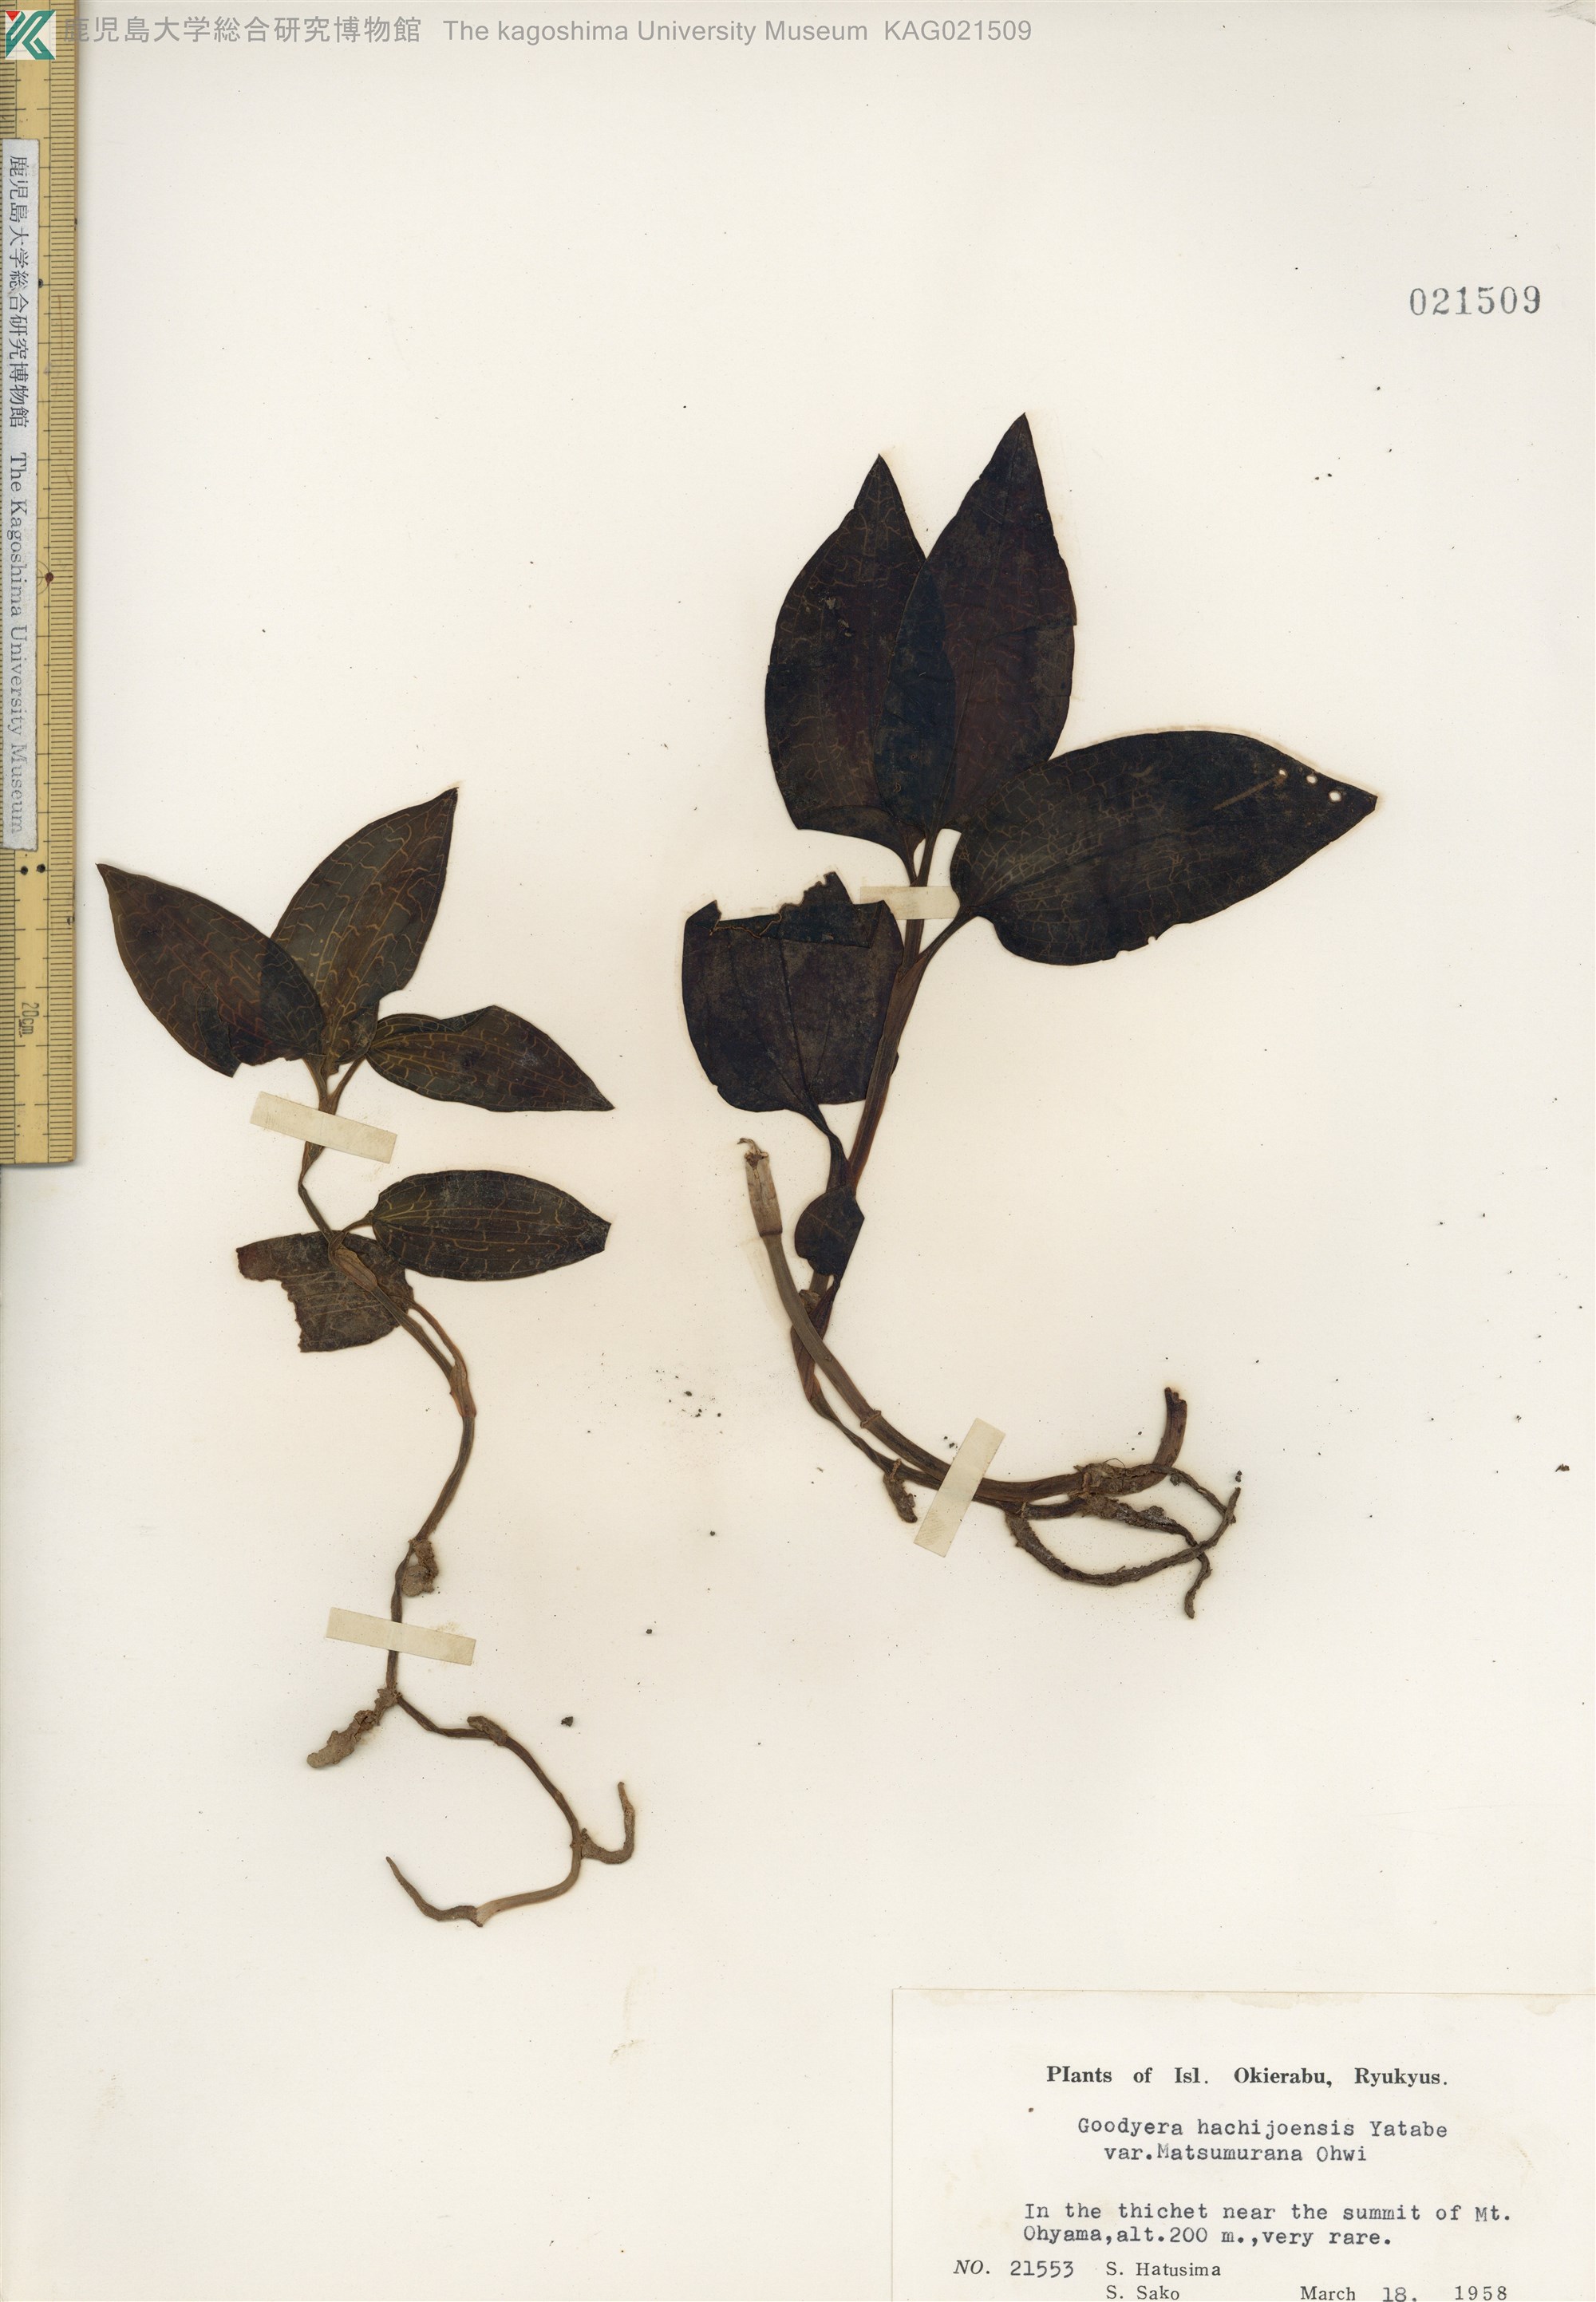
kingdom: Plantae
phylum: Tracheophyta
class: Liliopsida
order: Asparagales
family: Orchidaceae
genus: Goodyera
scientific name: Goodyera hachijoensis
